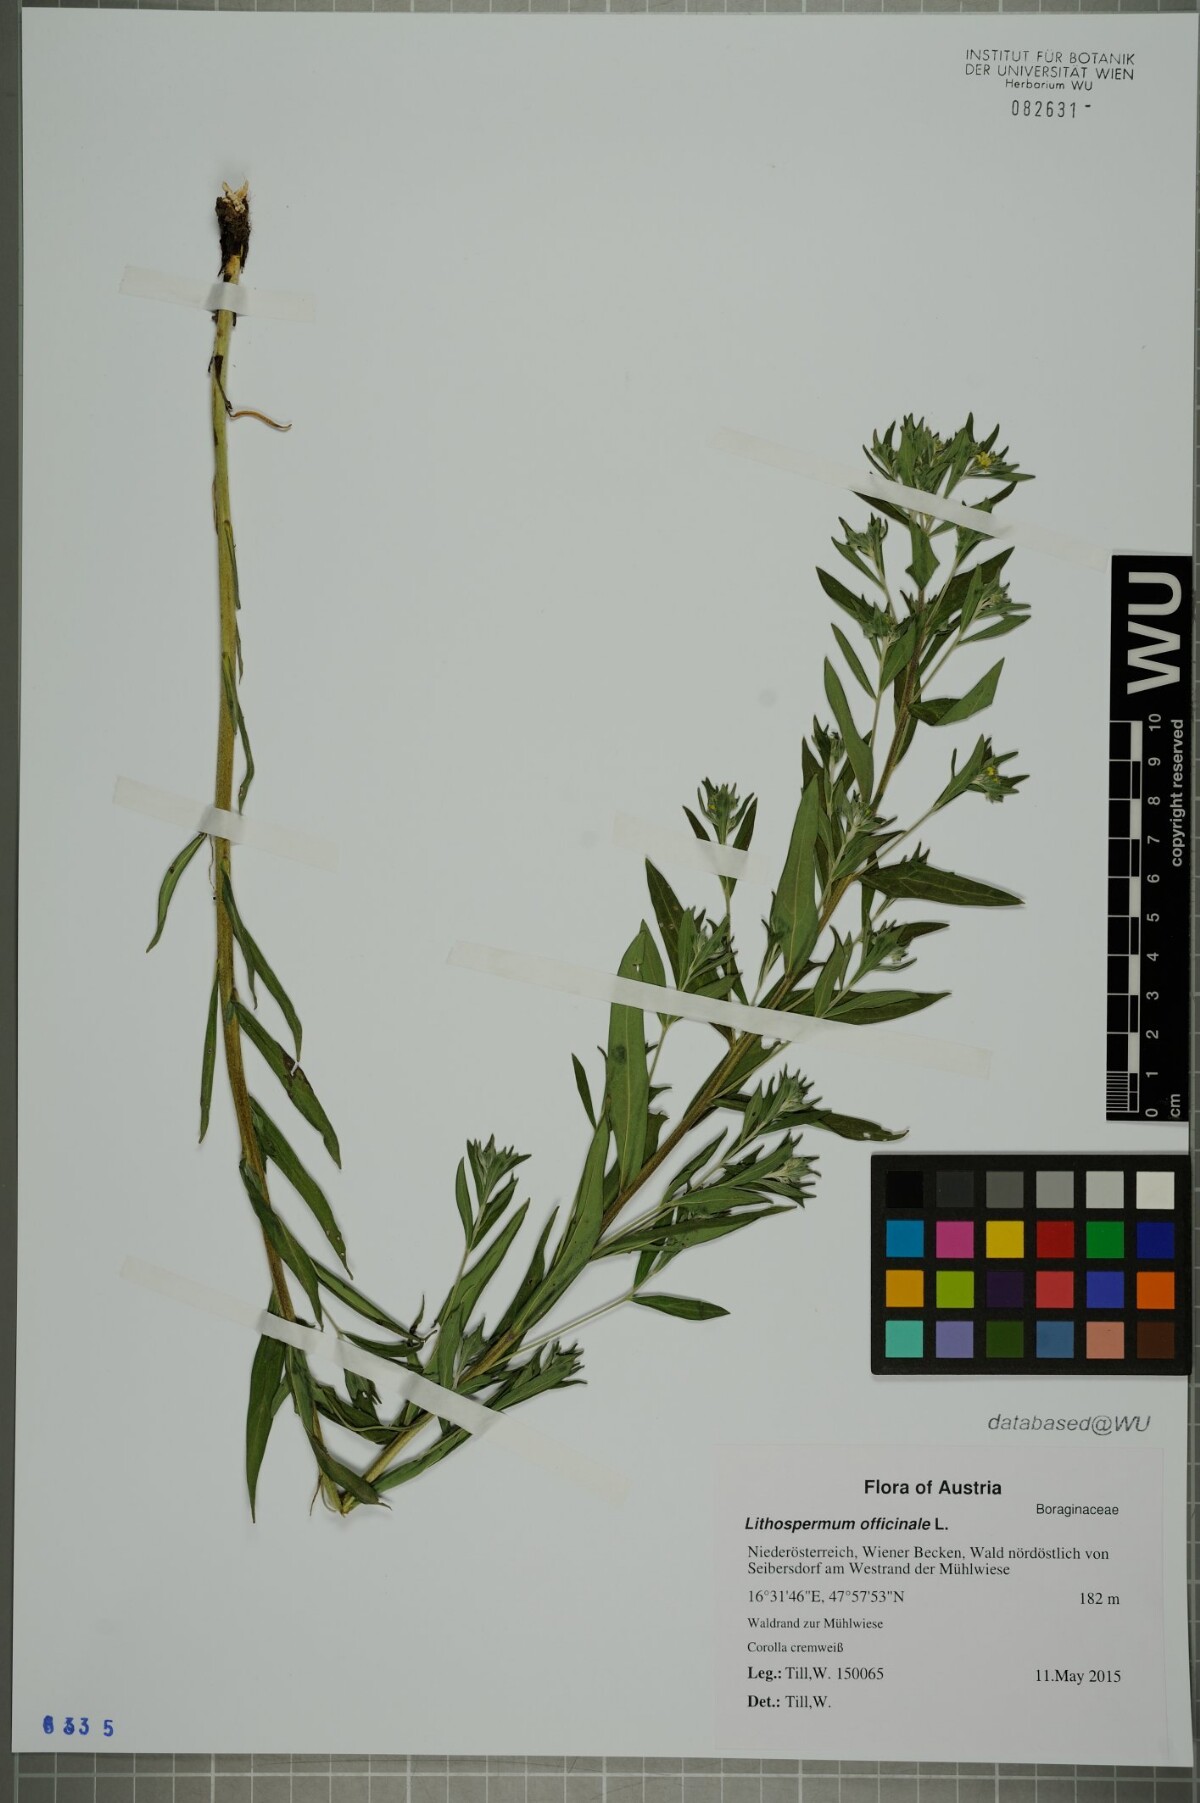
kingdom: Plantae
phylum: Tracheophyta
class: Magnoliopsida
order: Boraginales
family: Boraginaceae
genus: Lithospermum
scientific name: Lithospermum officinale
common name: Common gromwell
